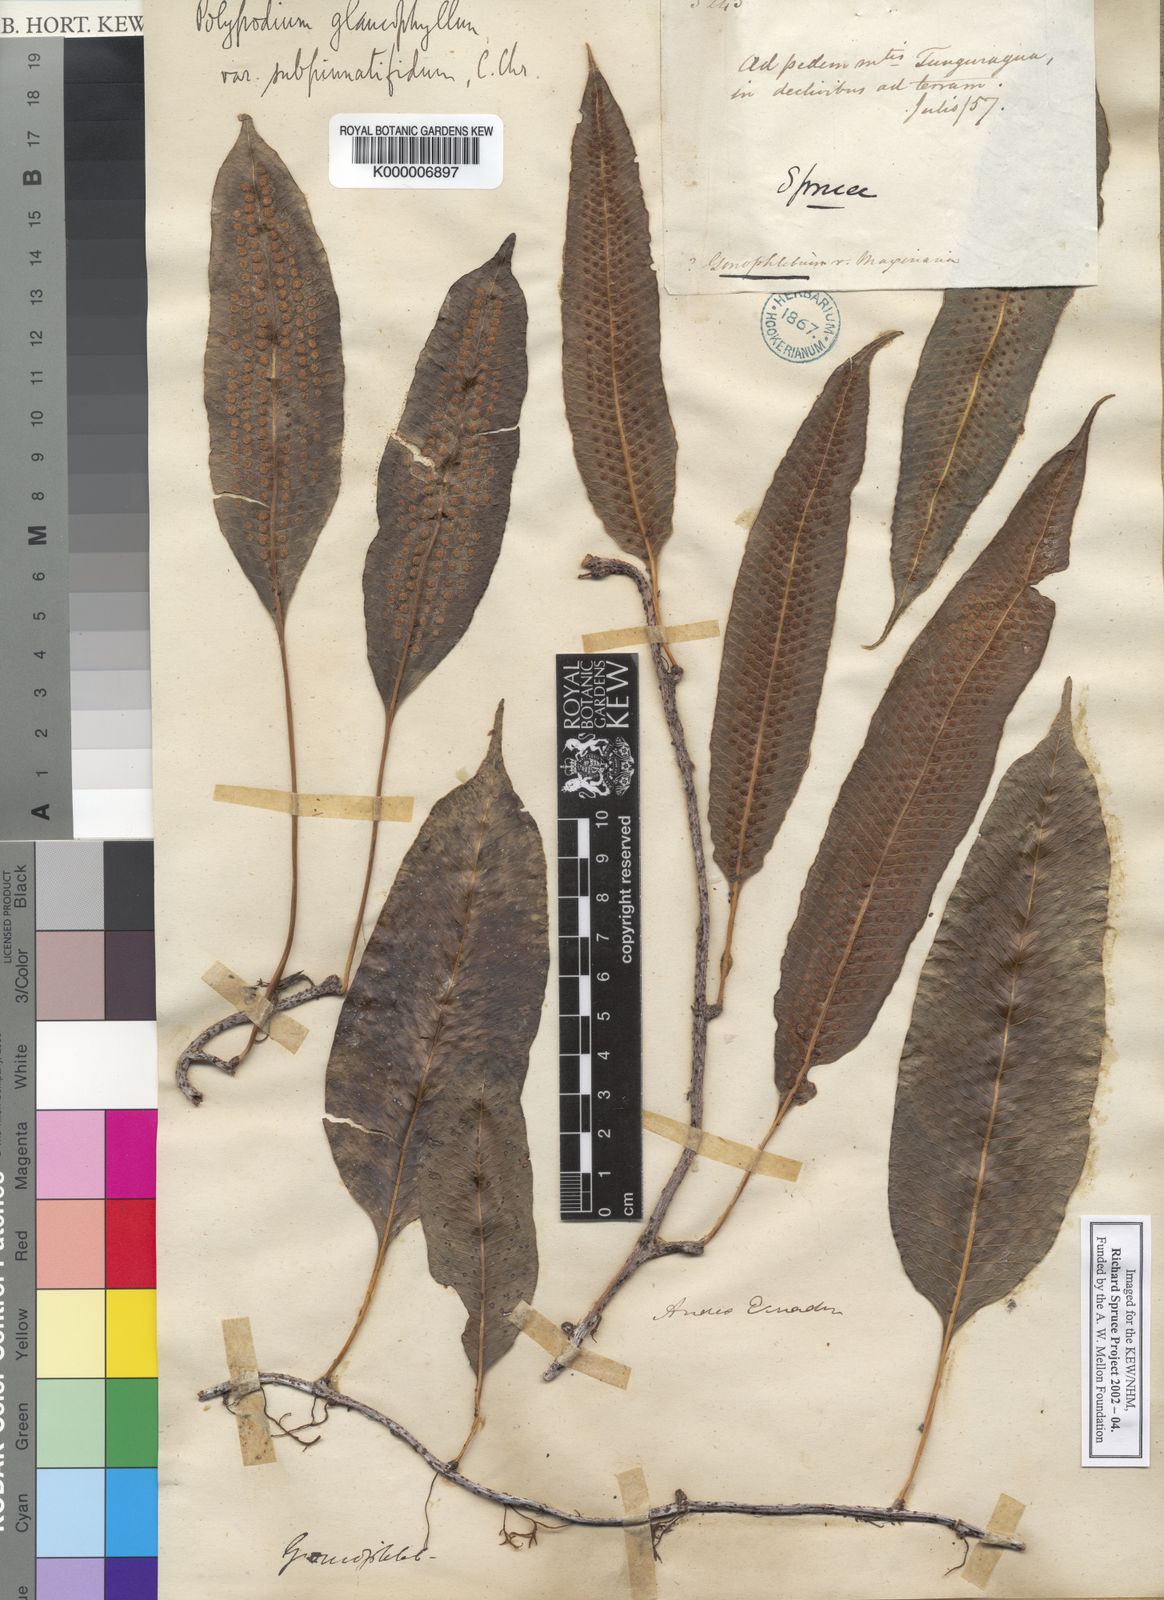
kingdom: Plantae
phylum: Tracheophyta
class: Polypodiopsida
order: Polypodiales
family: Polypodiaceae
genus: Polypodium
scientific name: Polypodium
